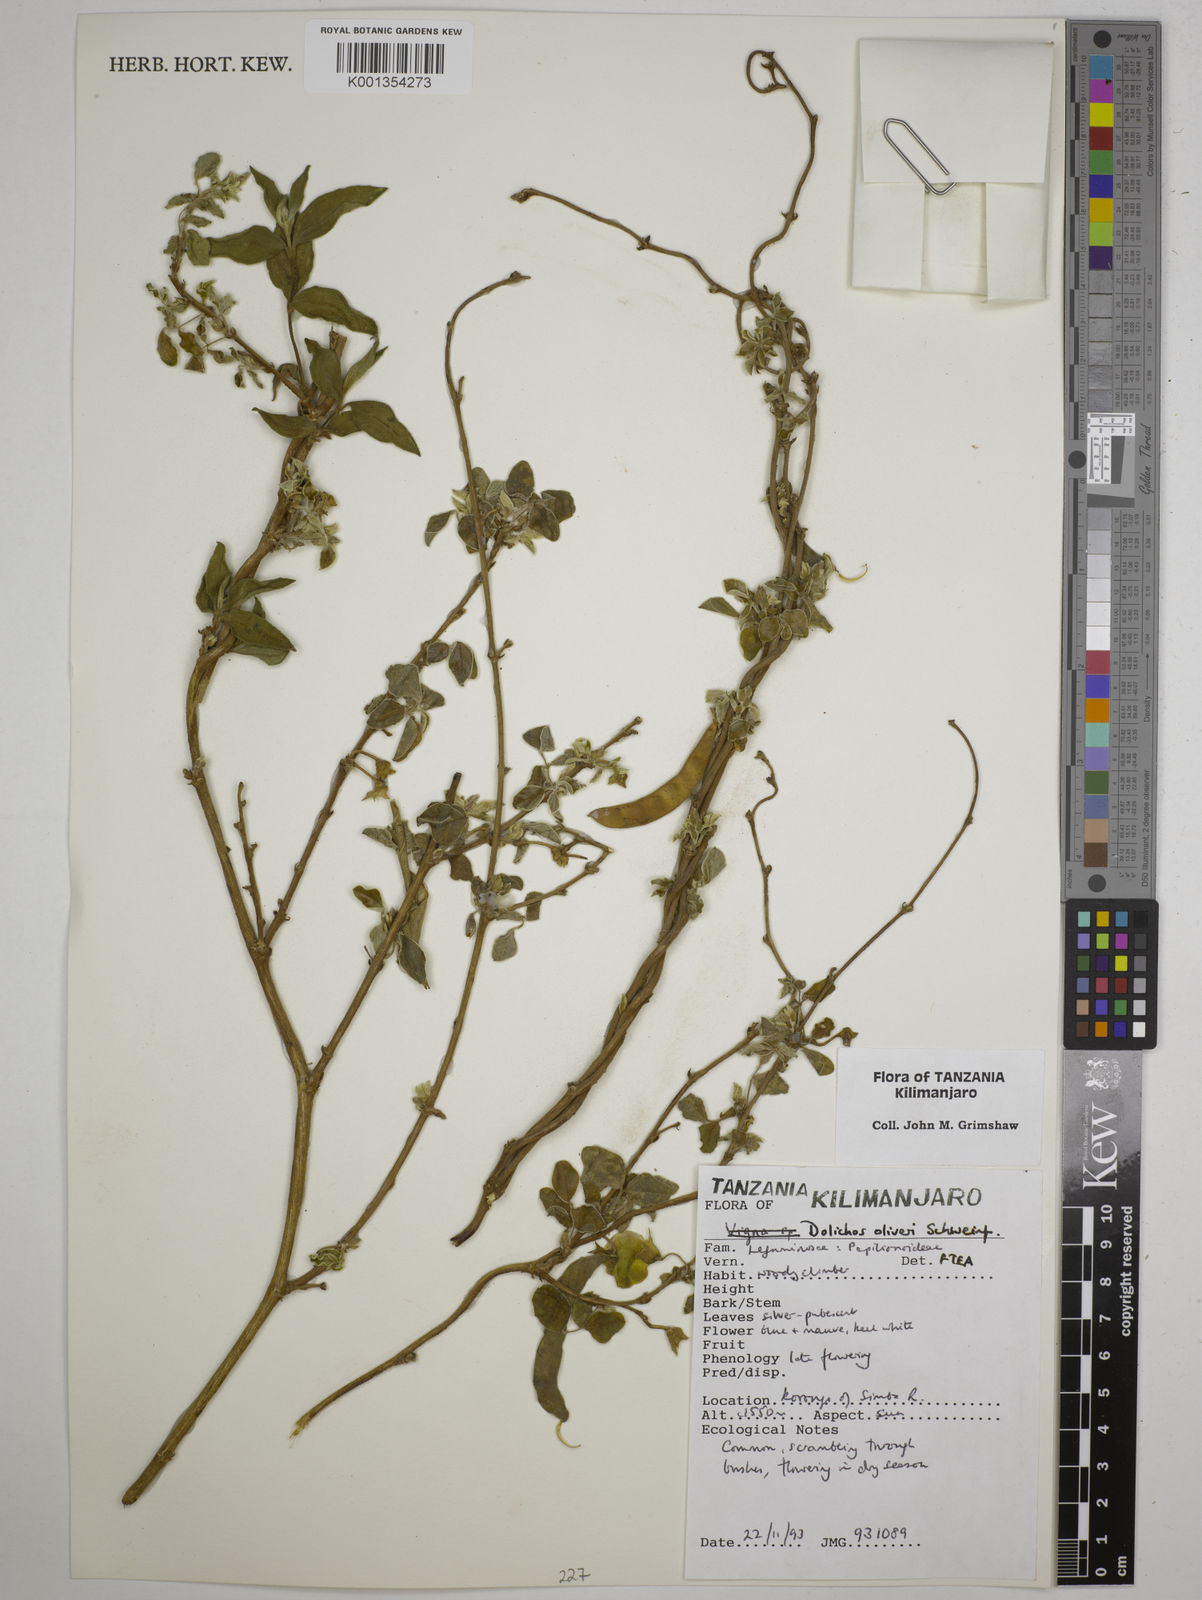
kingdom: Plantae
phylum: Tracheophyta
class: Magnoliopsida
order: Fabales
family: Fabaceae
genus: Dolichos
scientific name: Dolichos oliveri
